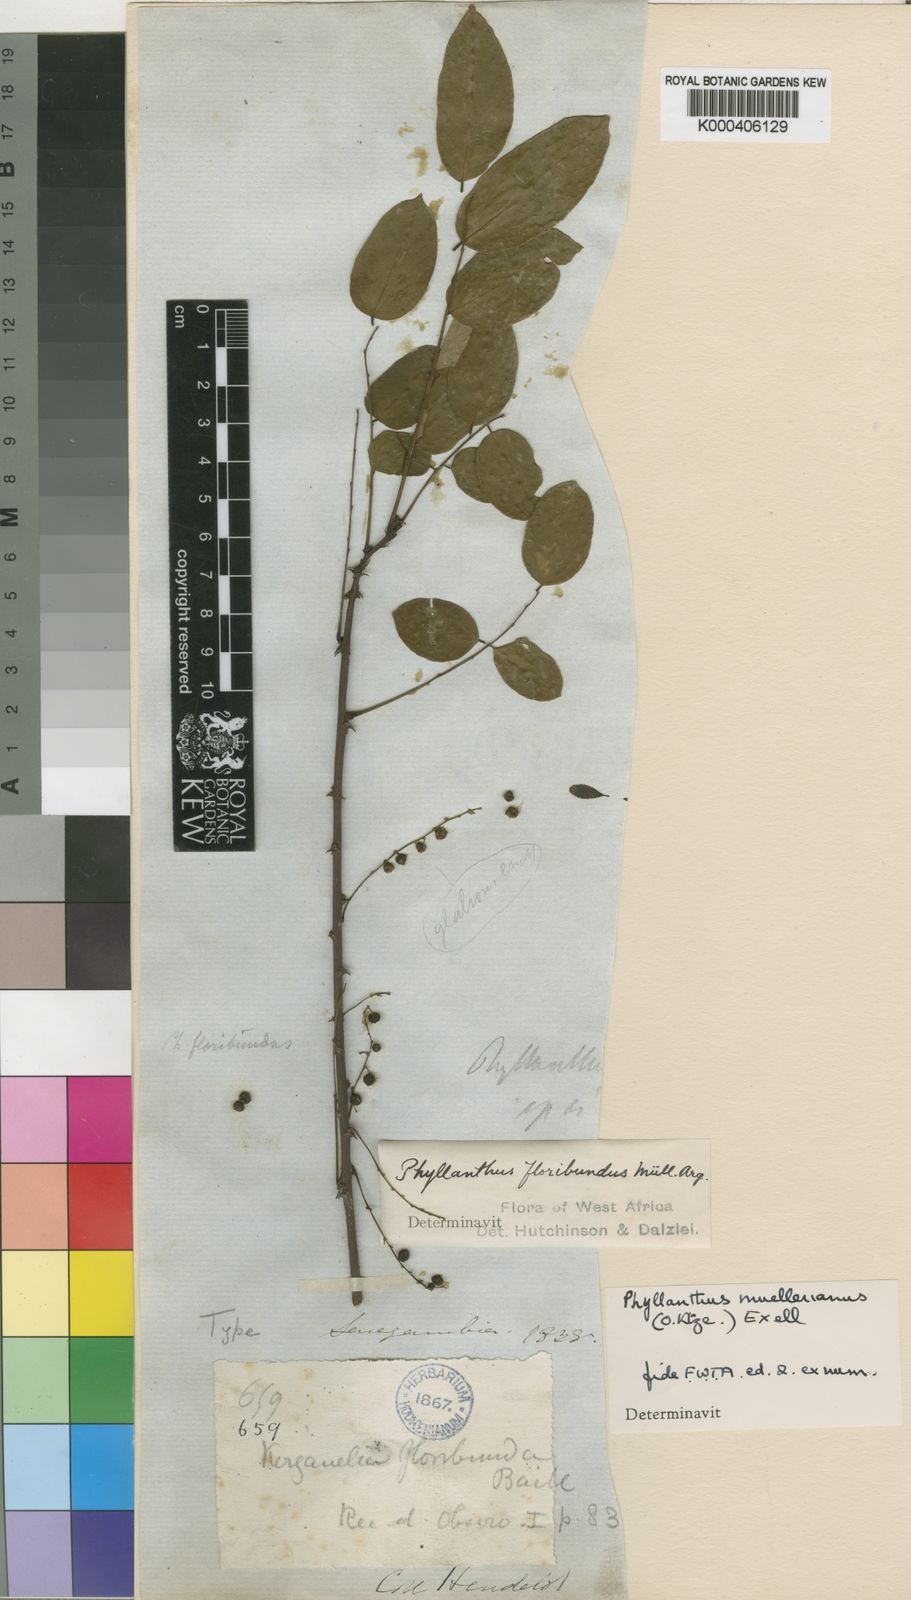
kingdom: Plantae
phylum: Tracheophyta
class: Magnoliopsida
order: Malpighiales
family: Phyllanthaceae
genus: Phyllanthus
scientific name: Phyllanthus muellerianus
